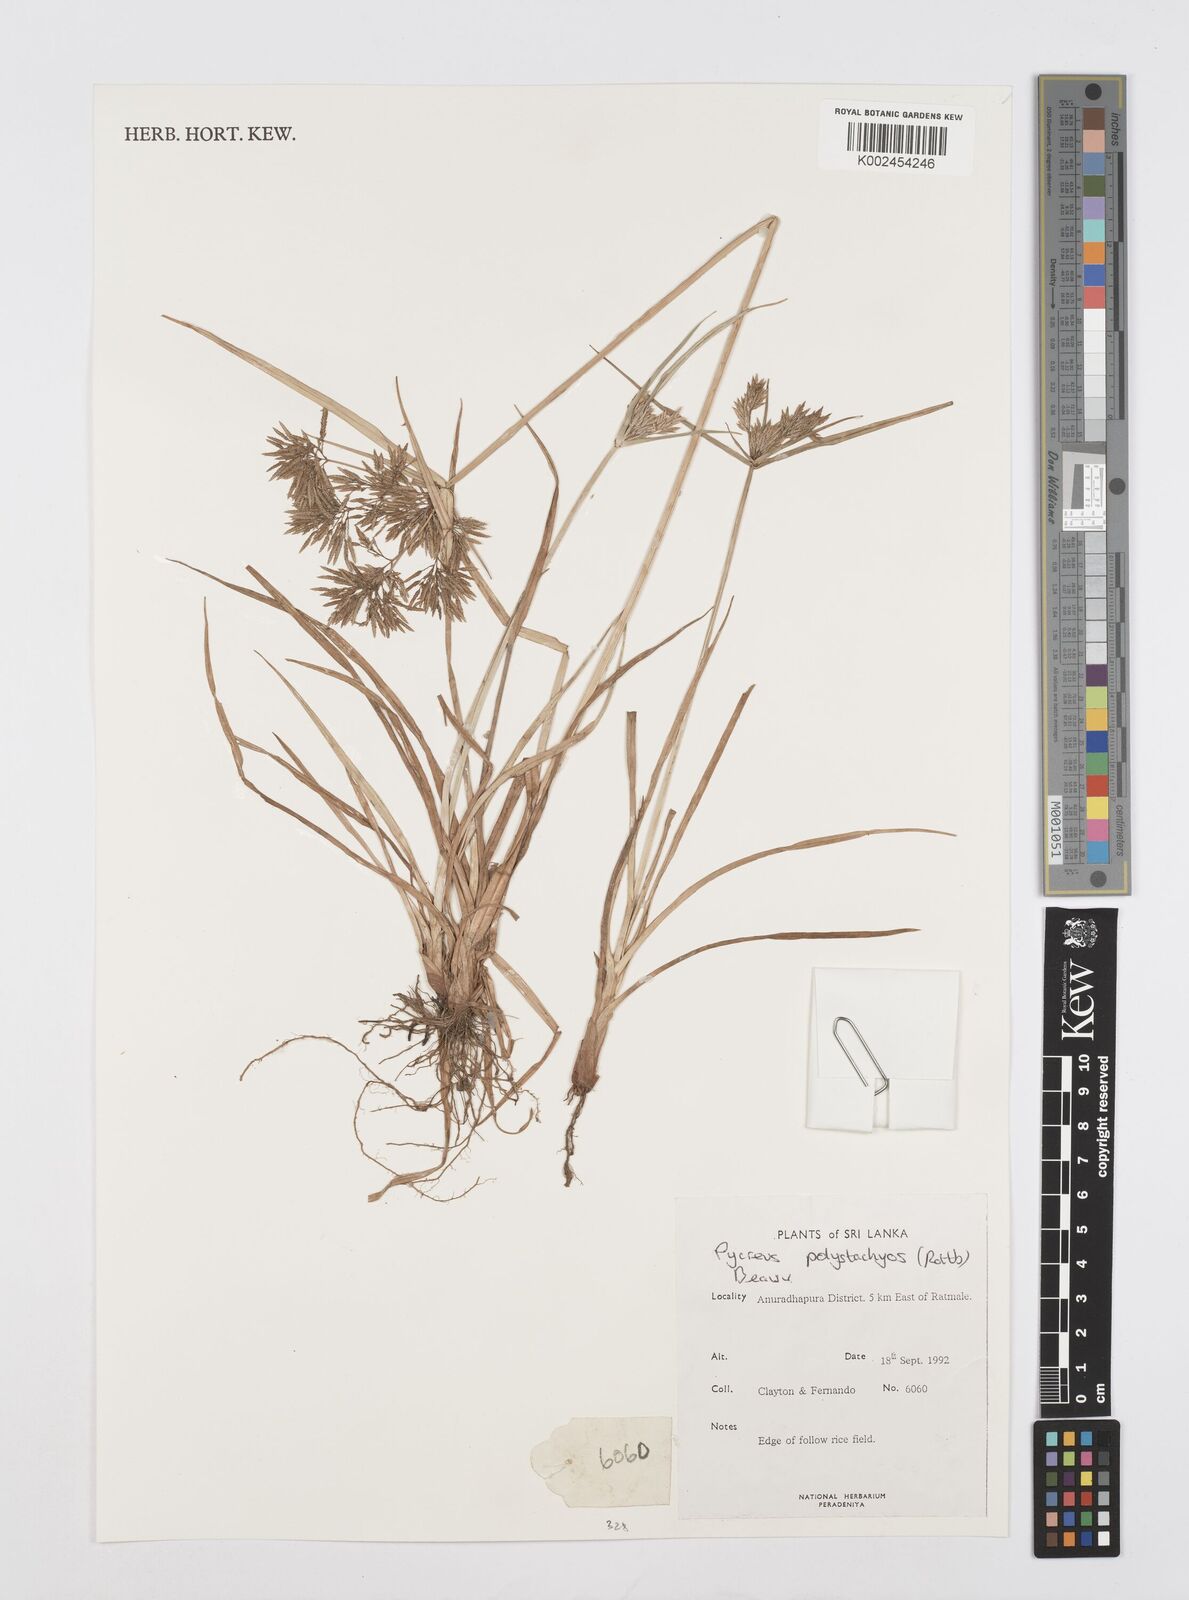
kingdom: Plantae
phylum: Tracheophyta
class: Liliopsida
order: Poales
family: Cyperaceae
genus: Cyperus
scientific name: Cyperus polystachyos
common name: Bunchy flat sedge
